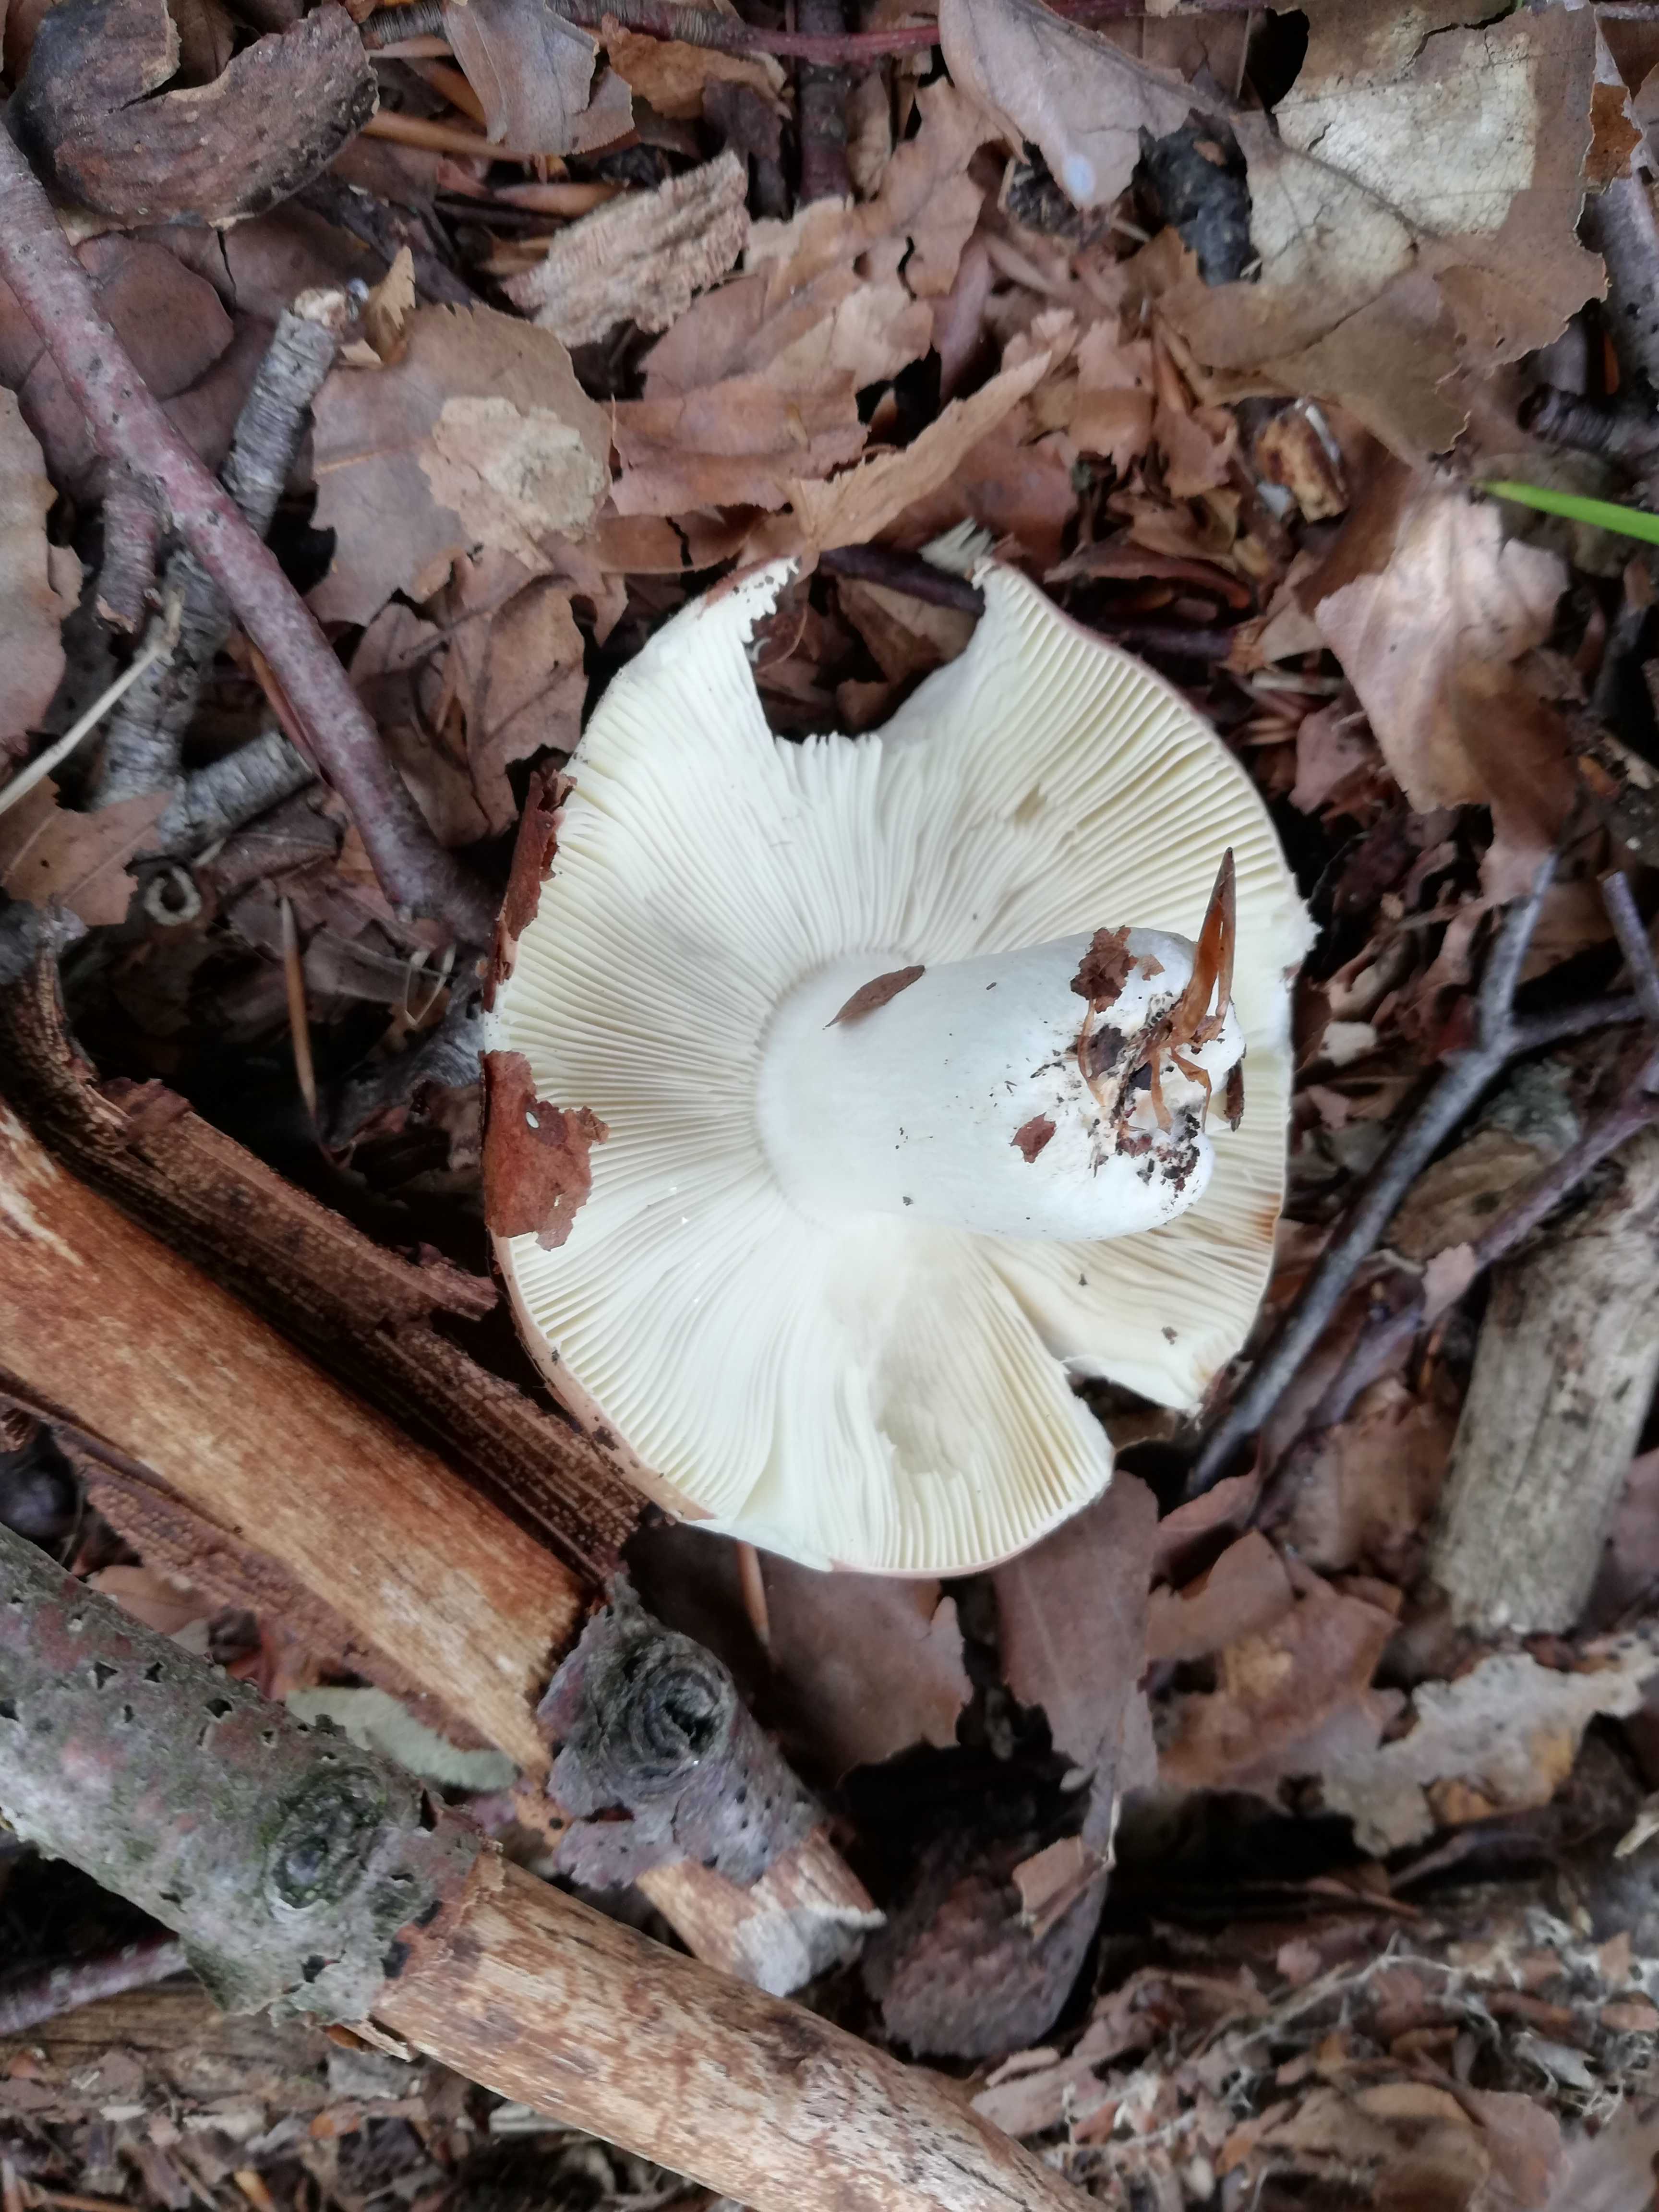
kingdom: Fungi
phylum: Basidiomycota
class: Agaricomycetes
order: Russulales
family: Russulaceae
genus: Russula
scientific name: Russula
